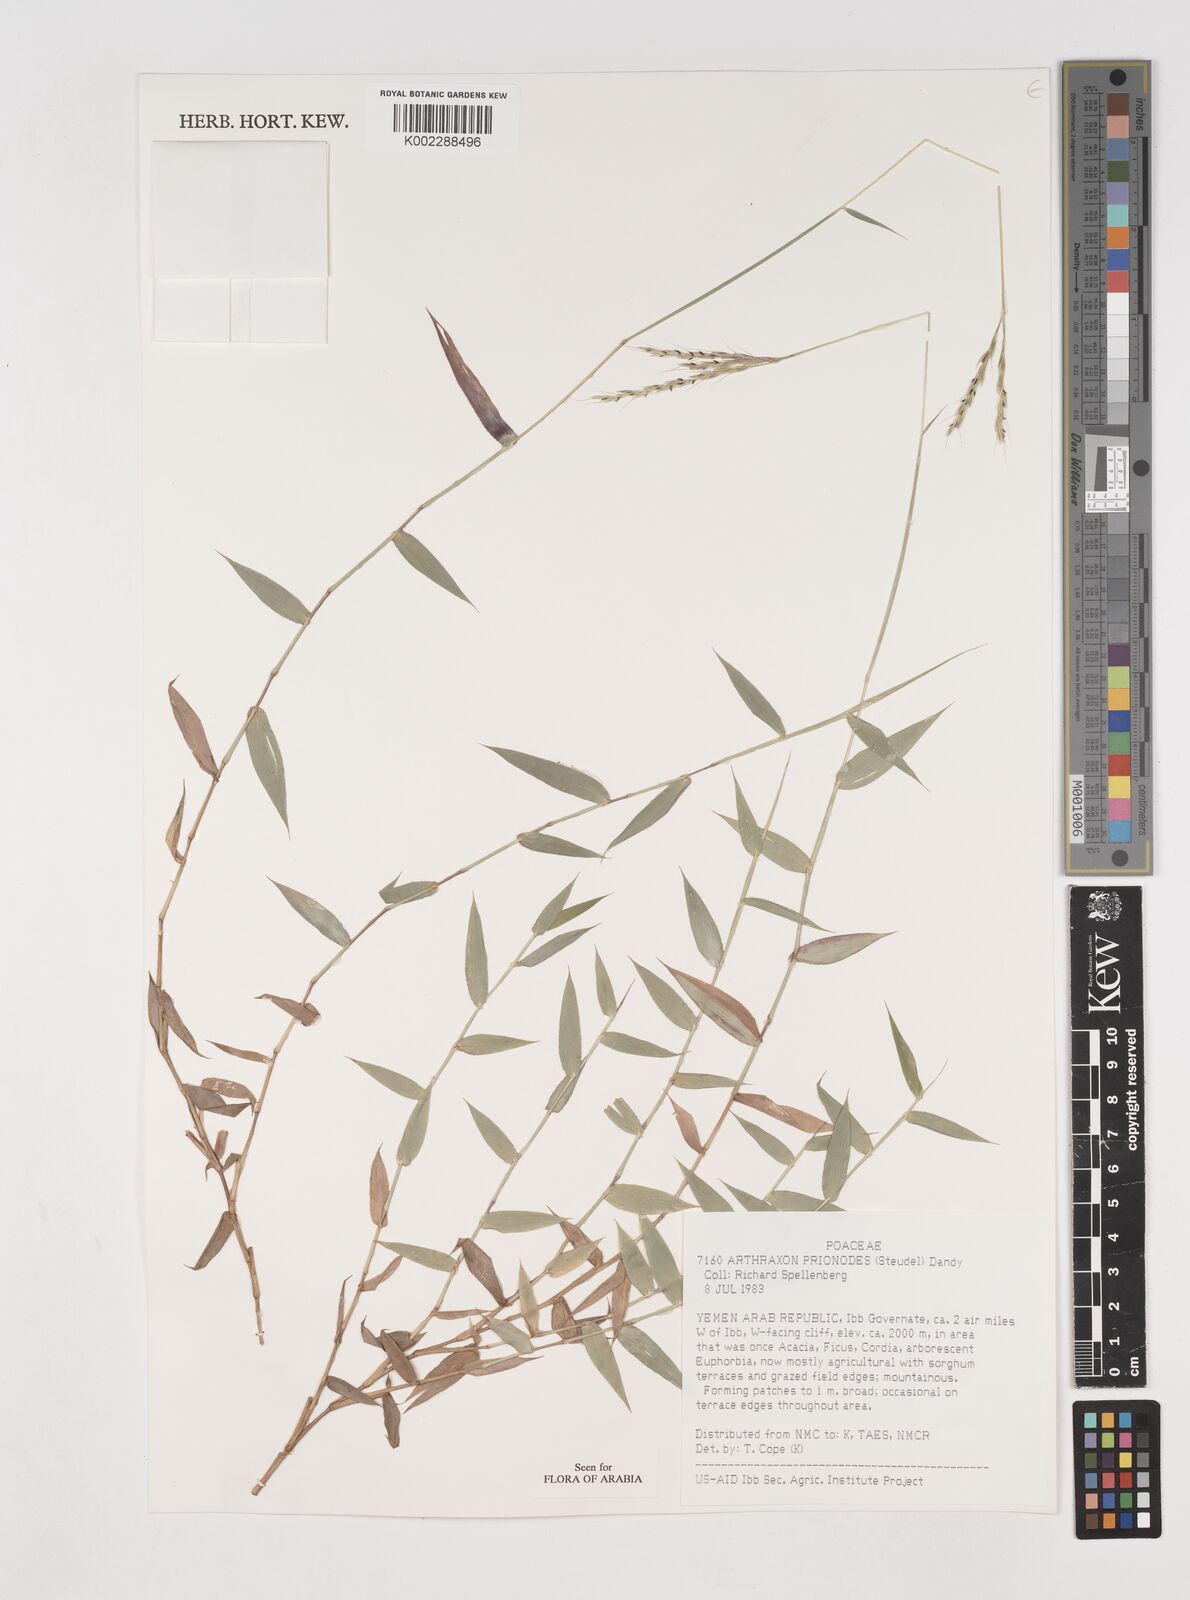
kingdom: Plantae
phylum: Tracheophyta
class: Liliopsida
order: Poales
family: Poaceae
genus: Arthraxon
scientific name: Arthraxon prionodes
